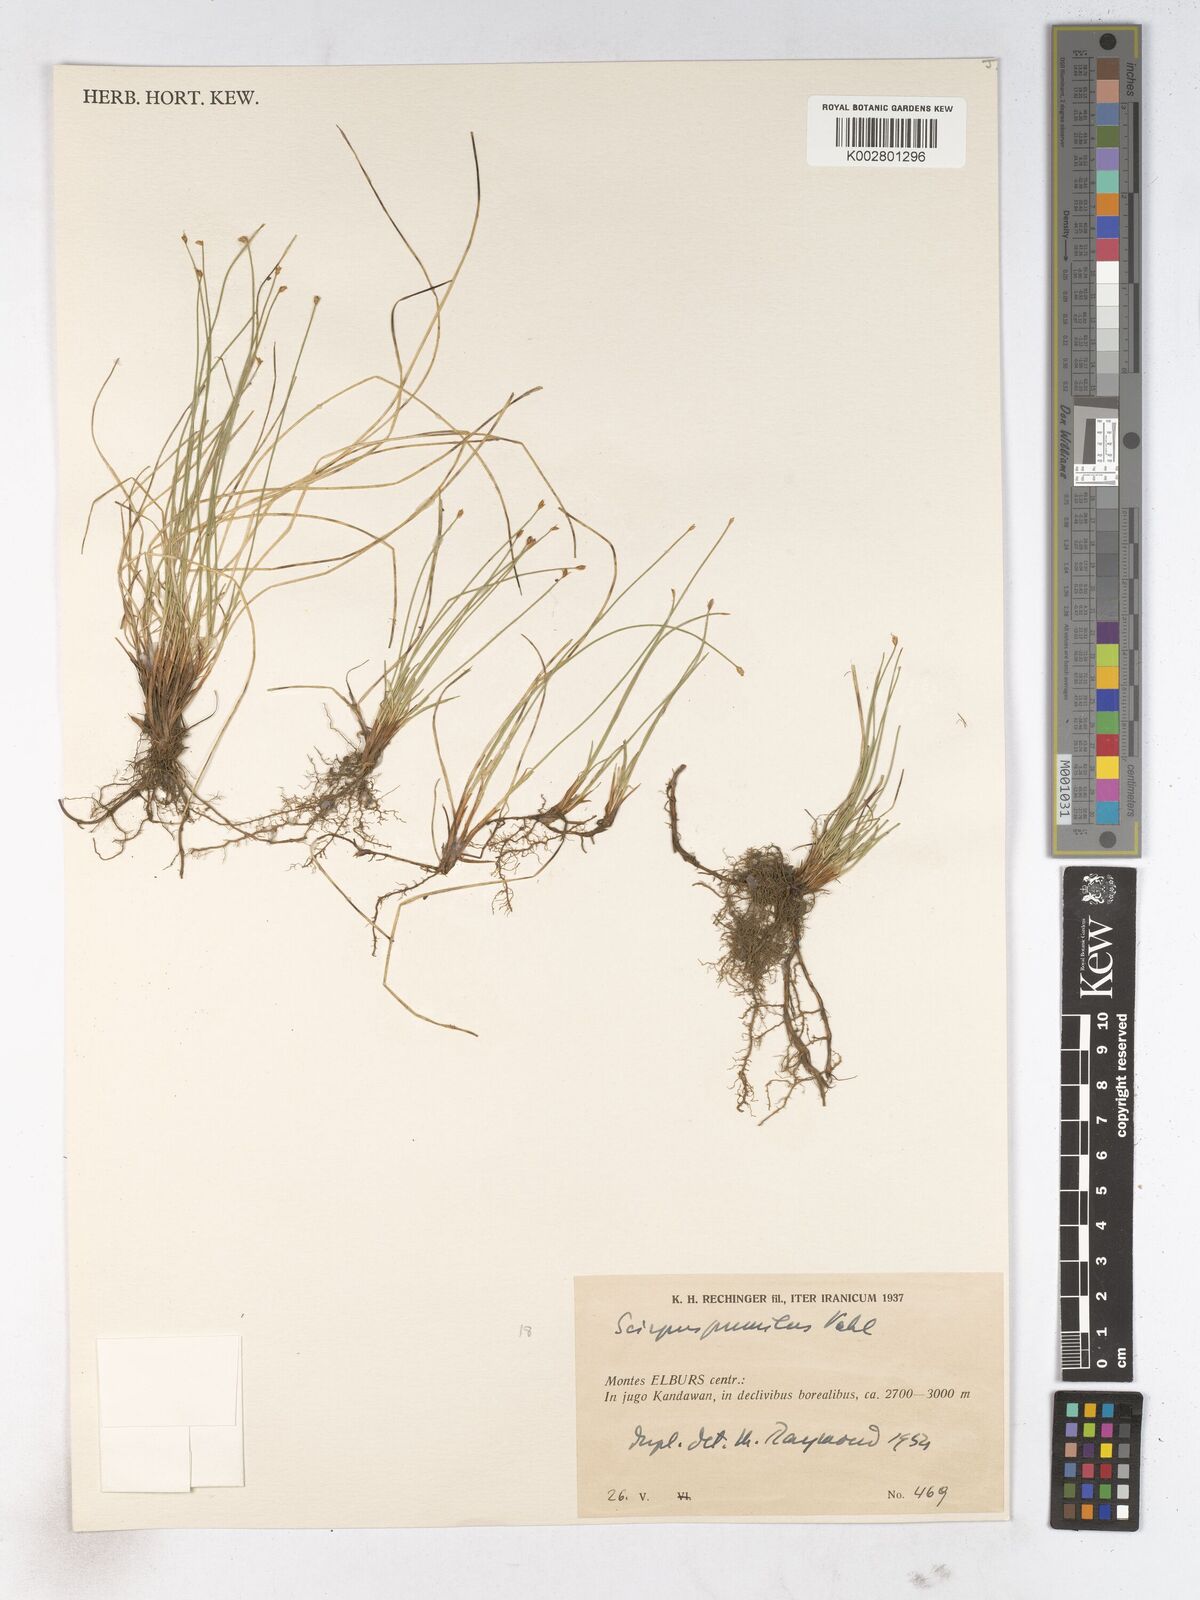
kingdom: Plantae
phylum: Tracheophyta
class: Liliopsida
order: Poales
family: Cyperaceae
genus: Trichophorum
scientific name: Trichophorum pumilum
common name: Rolland's bulrush
